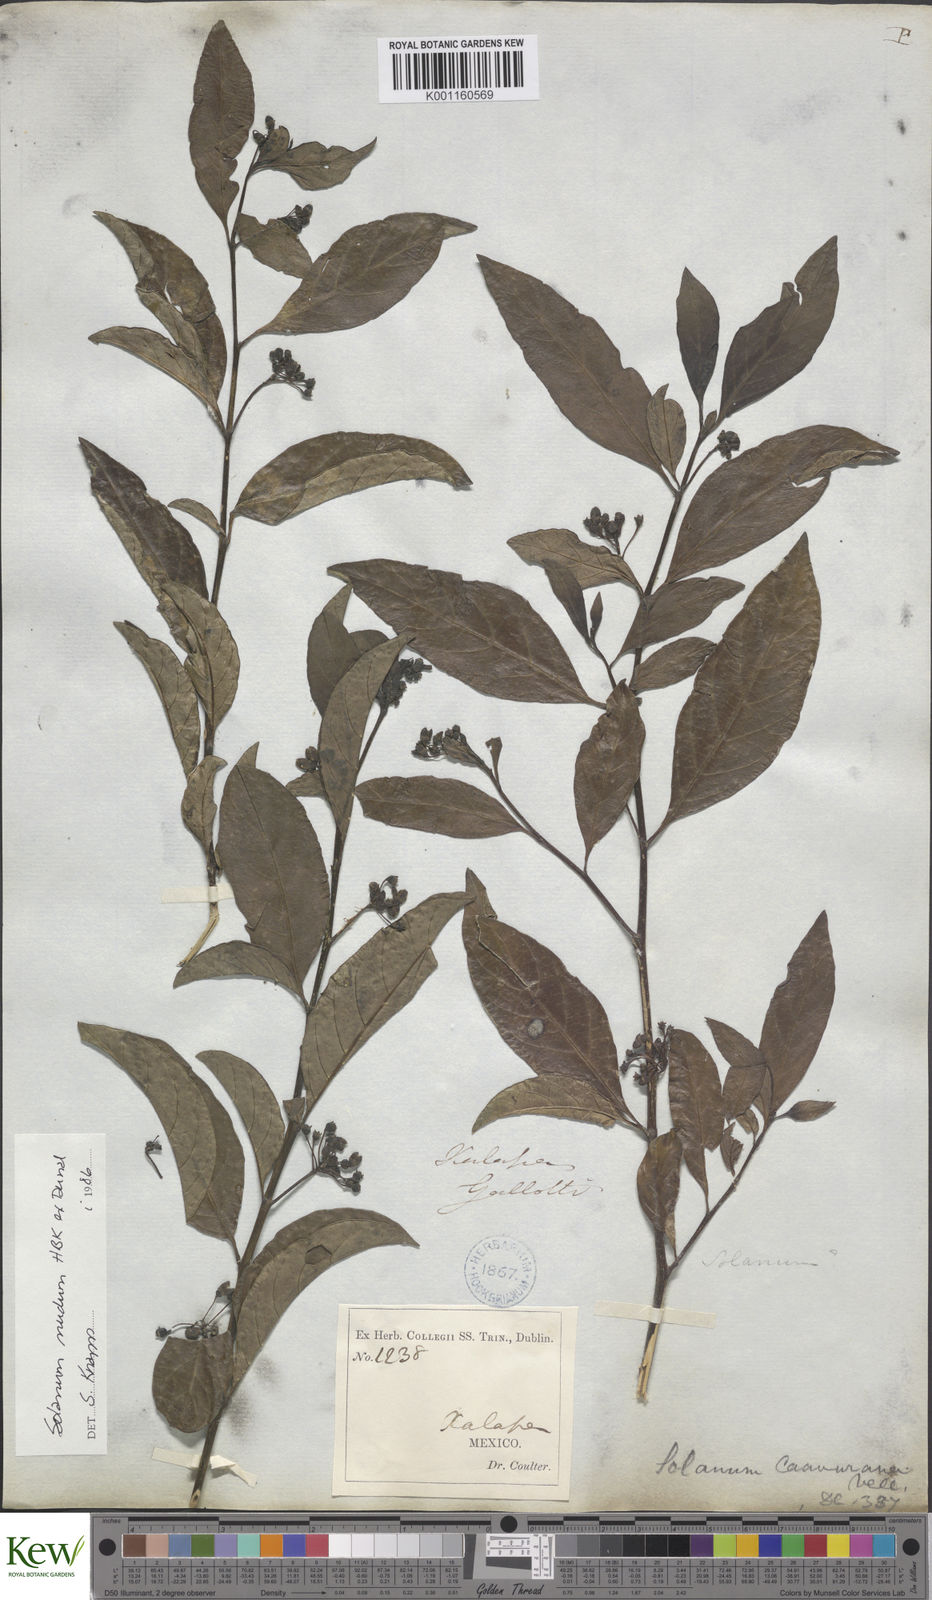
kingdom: Plantae
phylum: Tracheophyta
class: Magnoliopsida
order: Solanales
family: Solanaceae
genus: Solanum
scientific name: Solanum nudum
